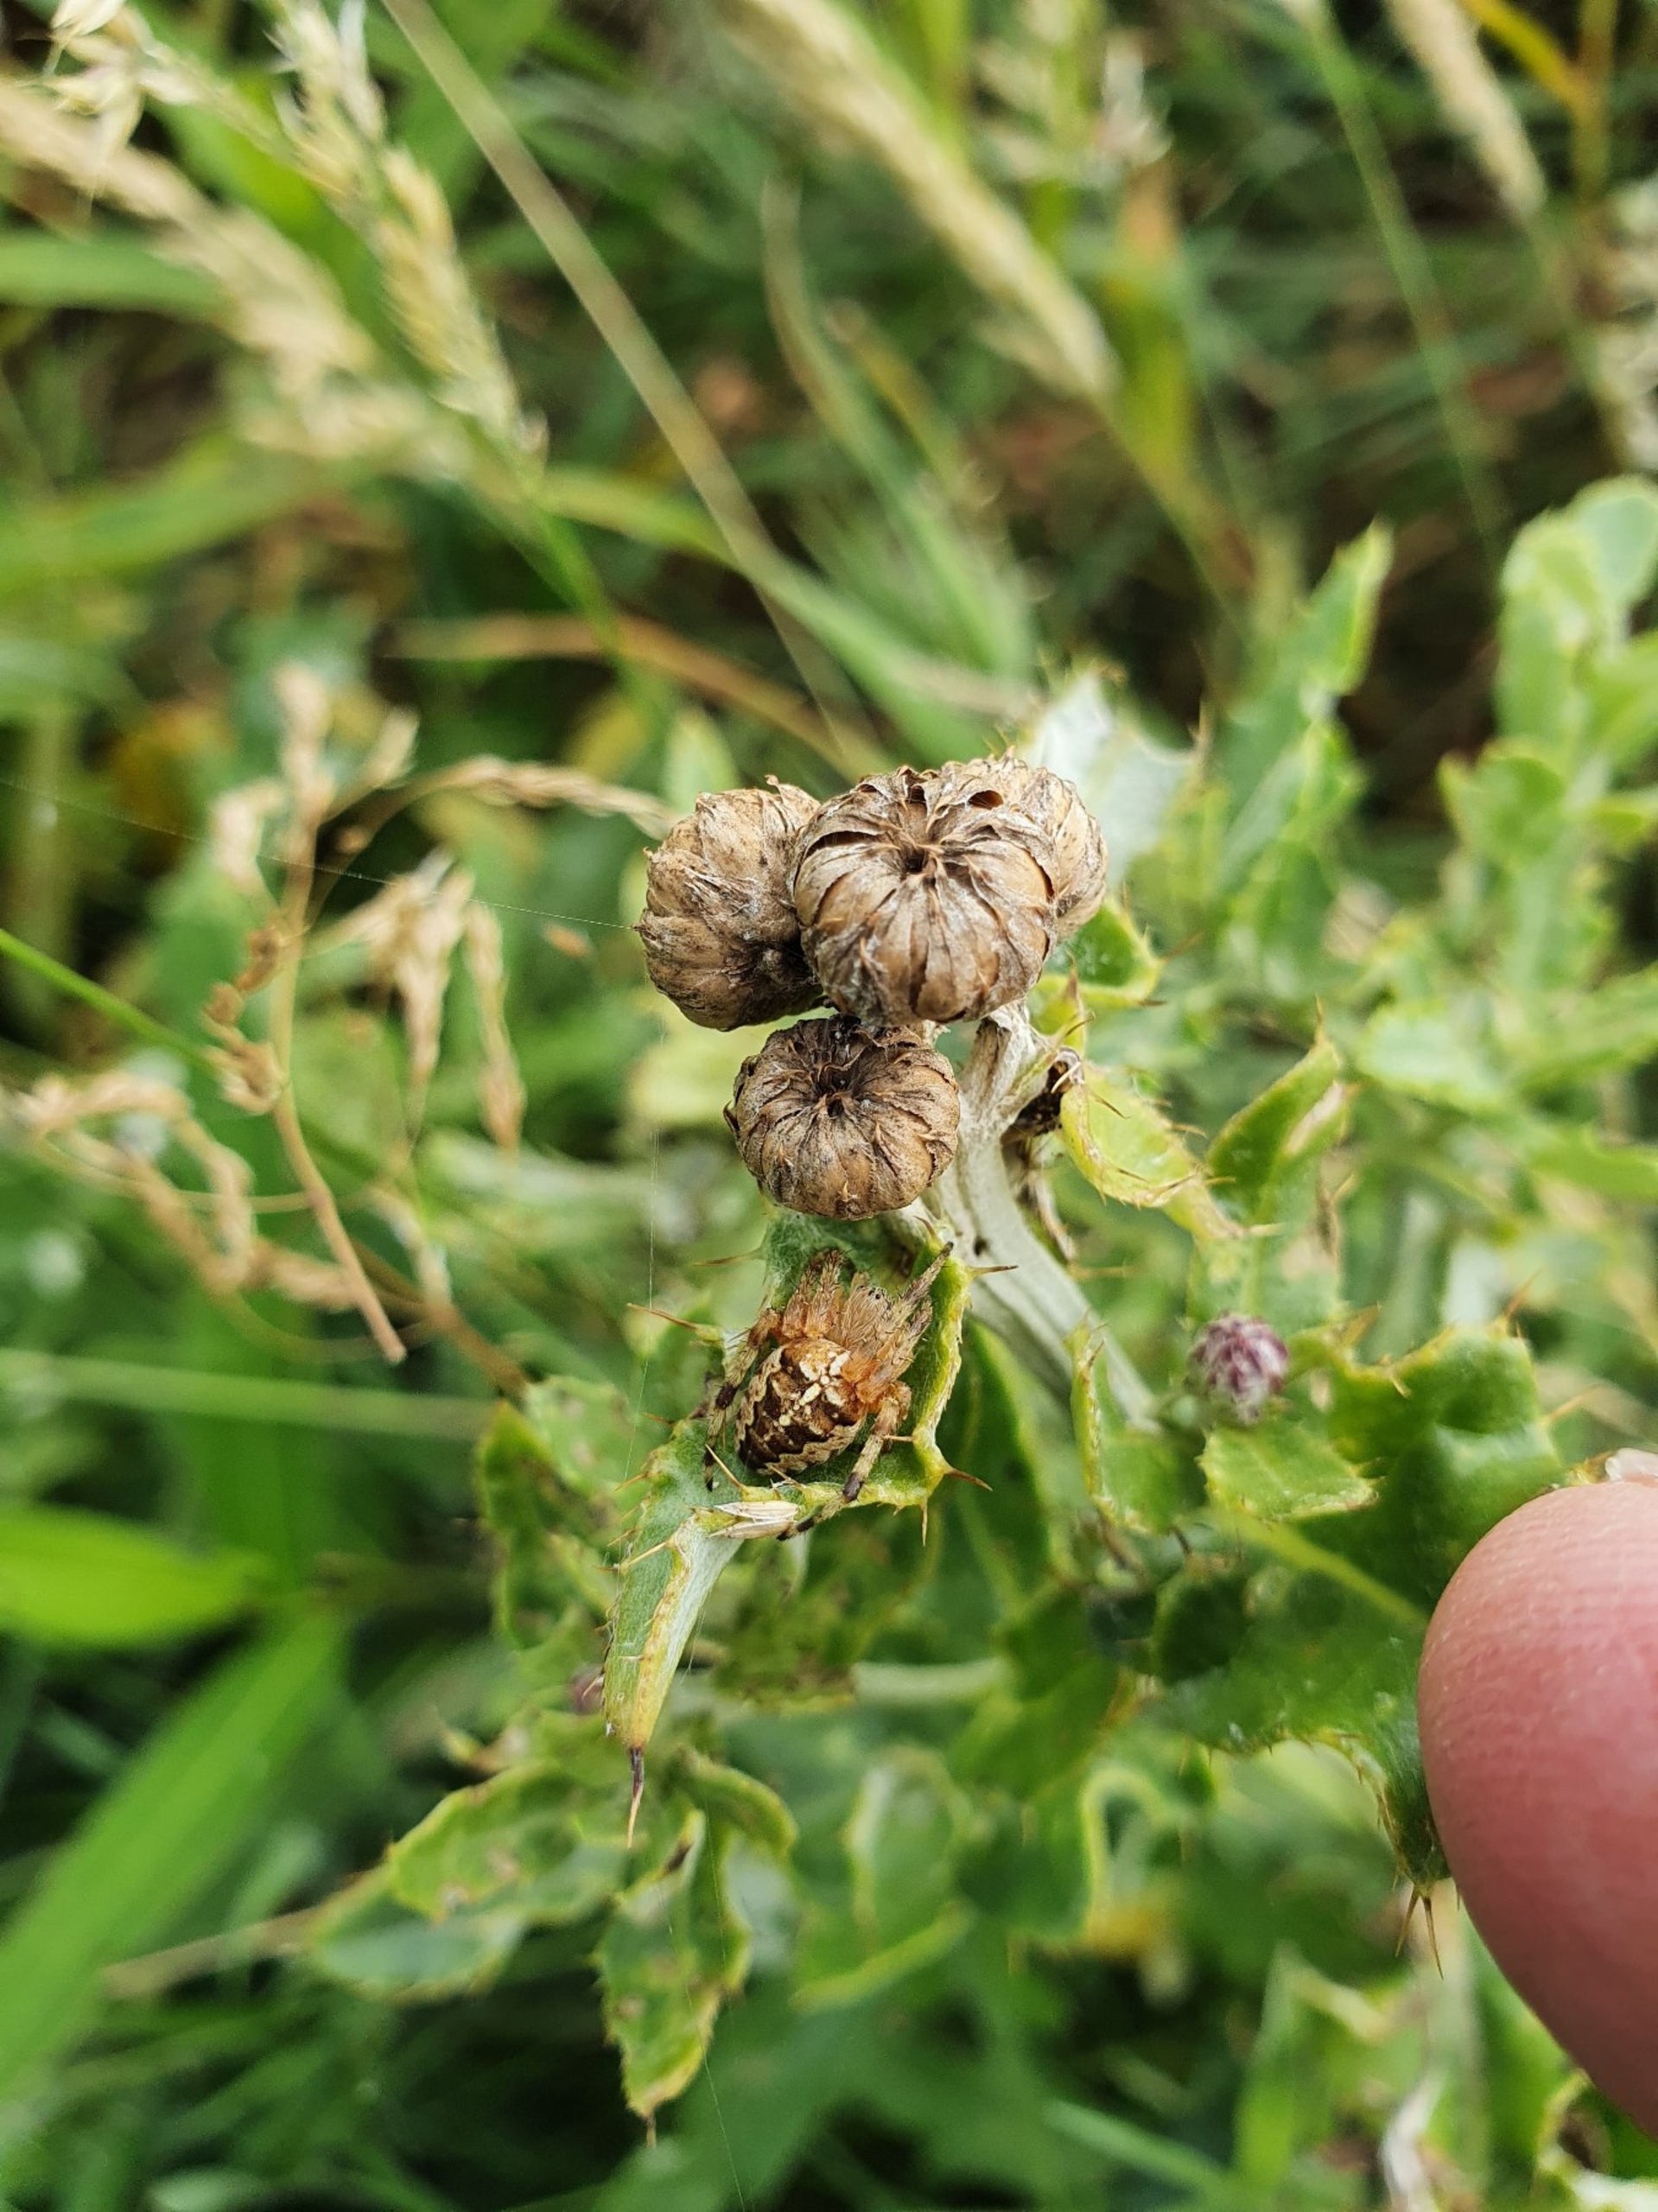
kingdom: Animalia
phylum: Arthropoda
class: Arachnida
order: Araneae
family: Araneidae
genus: Araneus
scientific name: Araneus diadematus
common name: Korsedderkop
